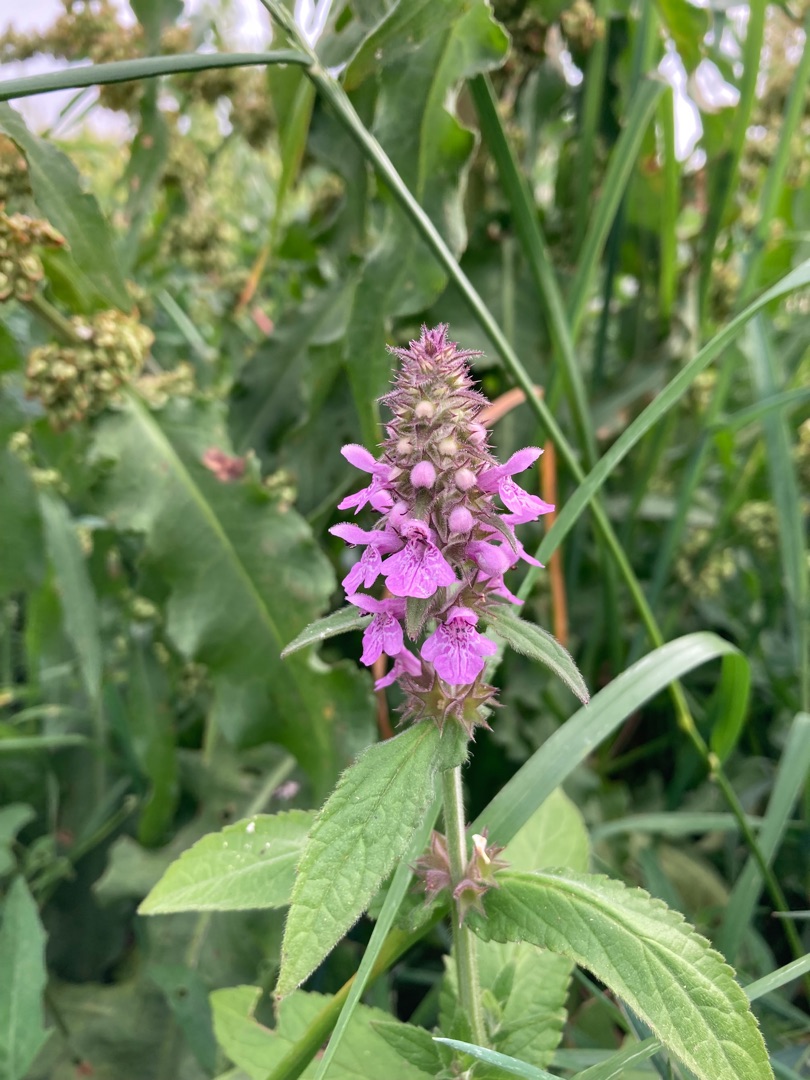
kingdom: Plantae
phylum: Tracheophyta
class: Magnoliopsida
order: Lamiales
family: Lamiaceae
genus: Stachys
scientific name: Stachys palustris
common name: Kær-galtetand
